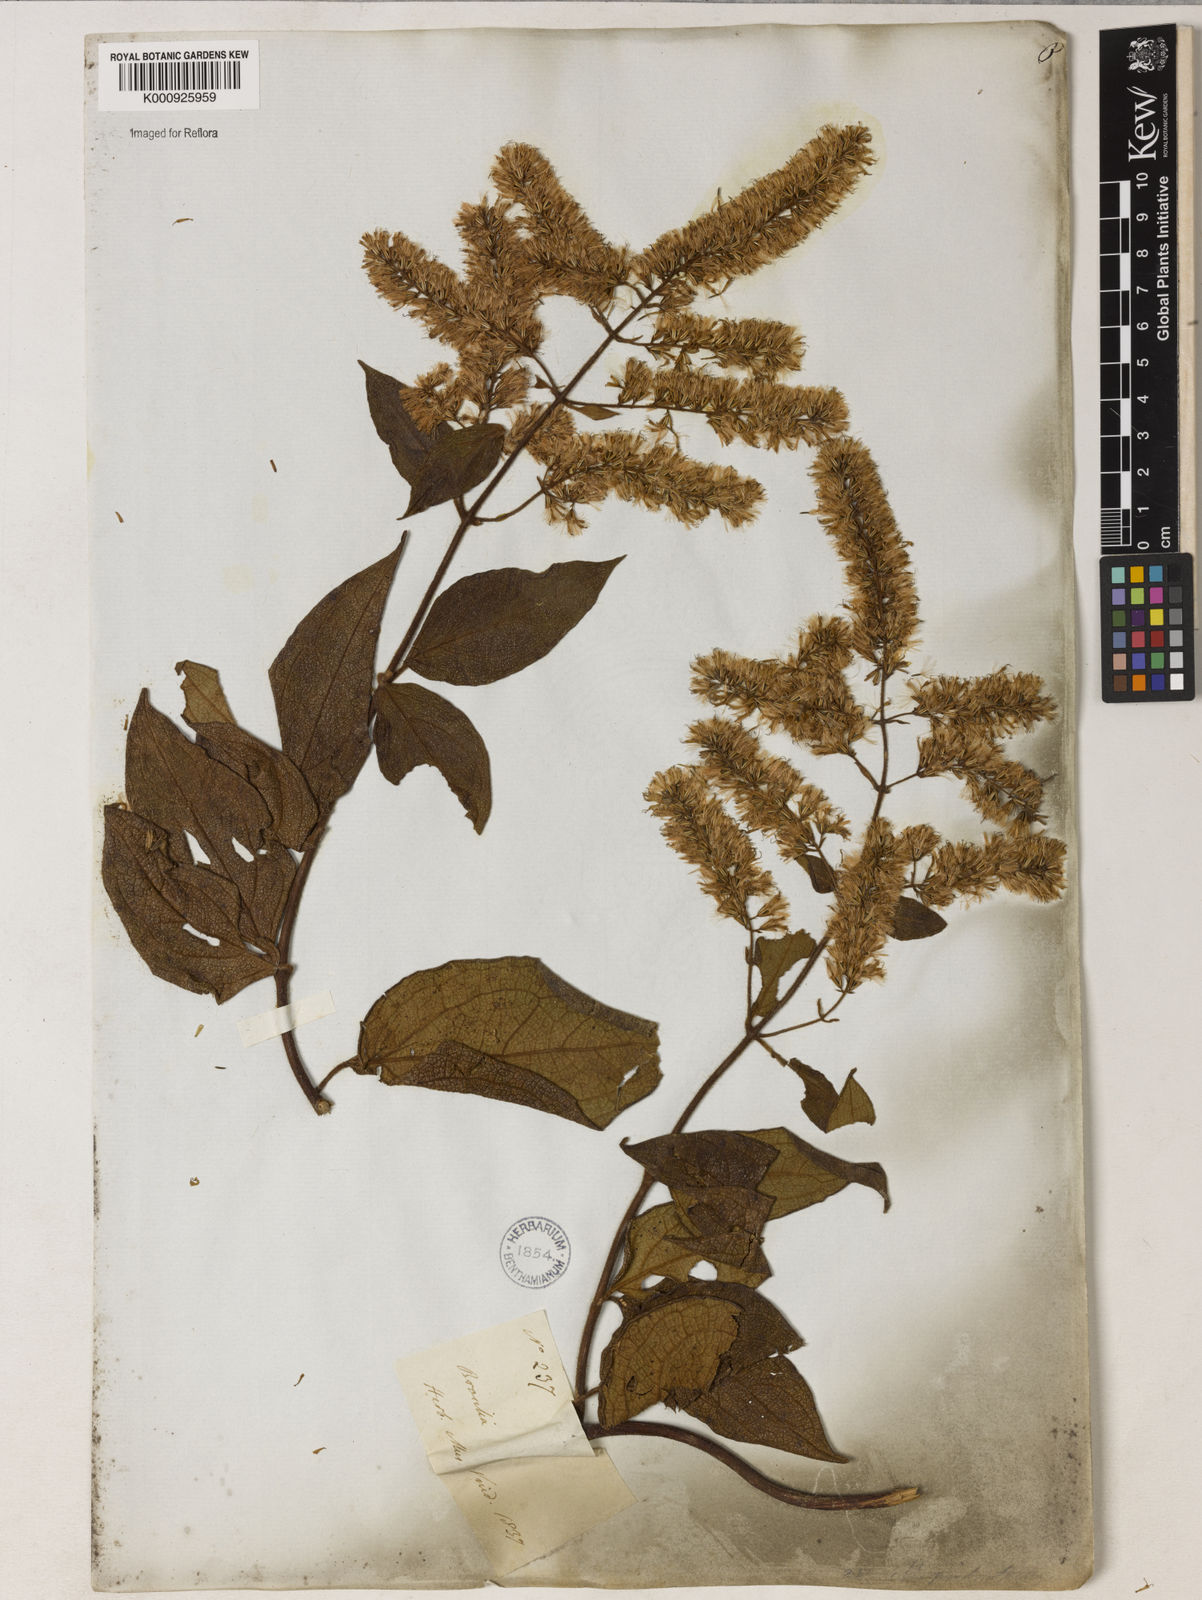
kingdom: Plantae
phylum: Tracheophyta
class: Magnoliopsida
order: Asterales
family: Asteraceae
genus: Mikania
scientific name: Mikania psilostachya
